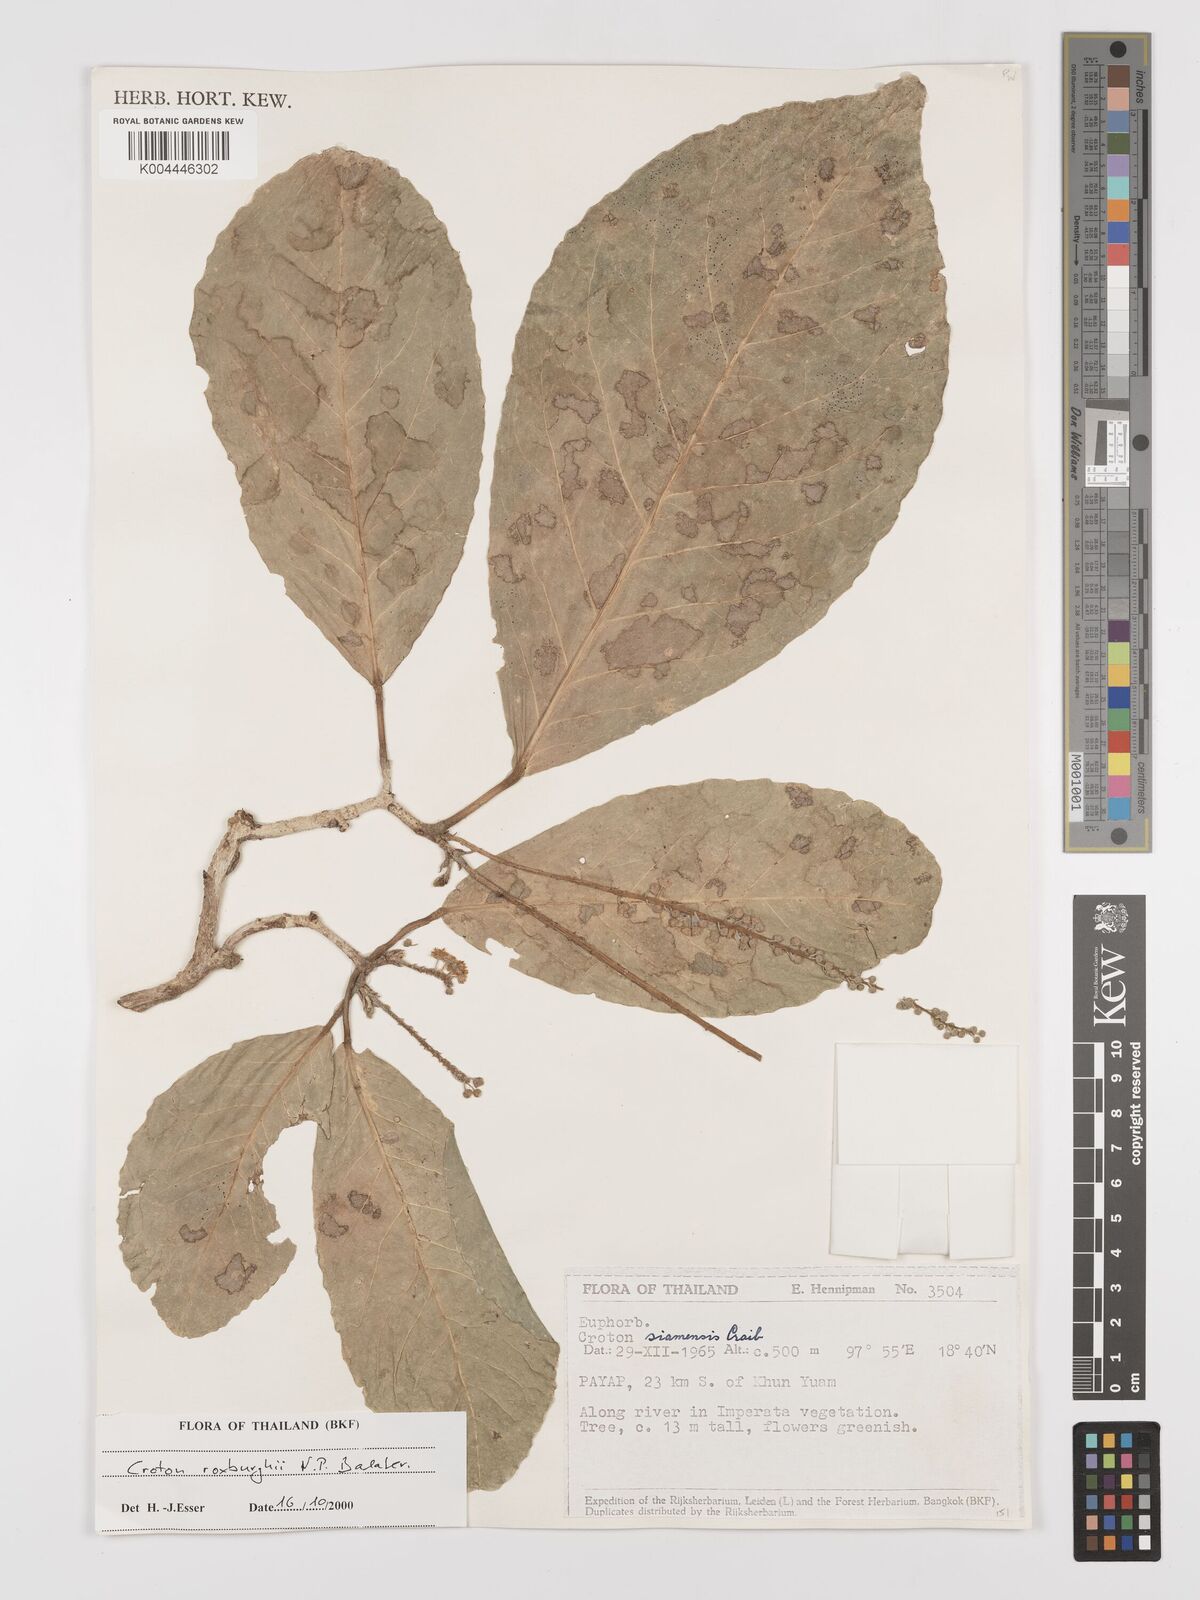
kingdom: Plantae
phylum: Tracheophyta
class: Magnoliopsida
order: Malpighiales
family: Euphorbiaceae
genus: Croton
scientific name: Croton
